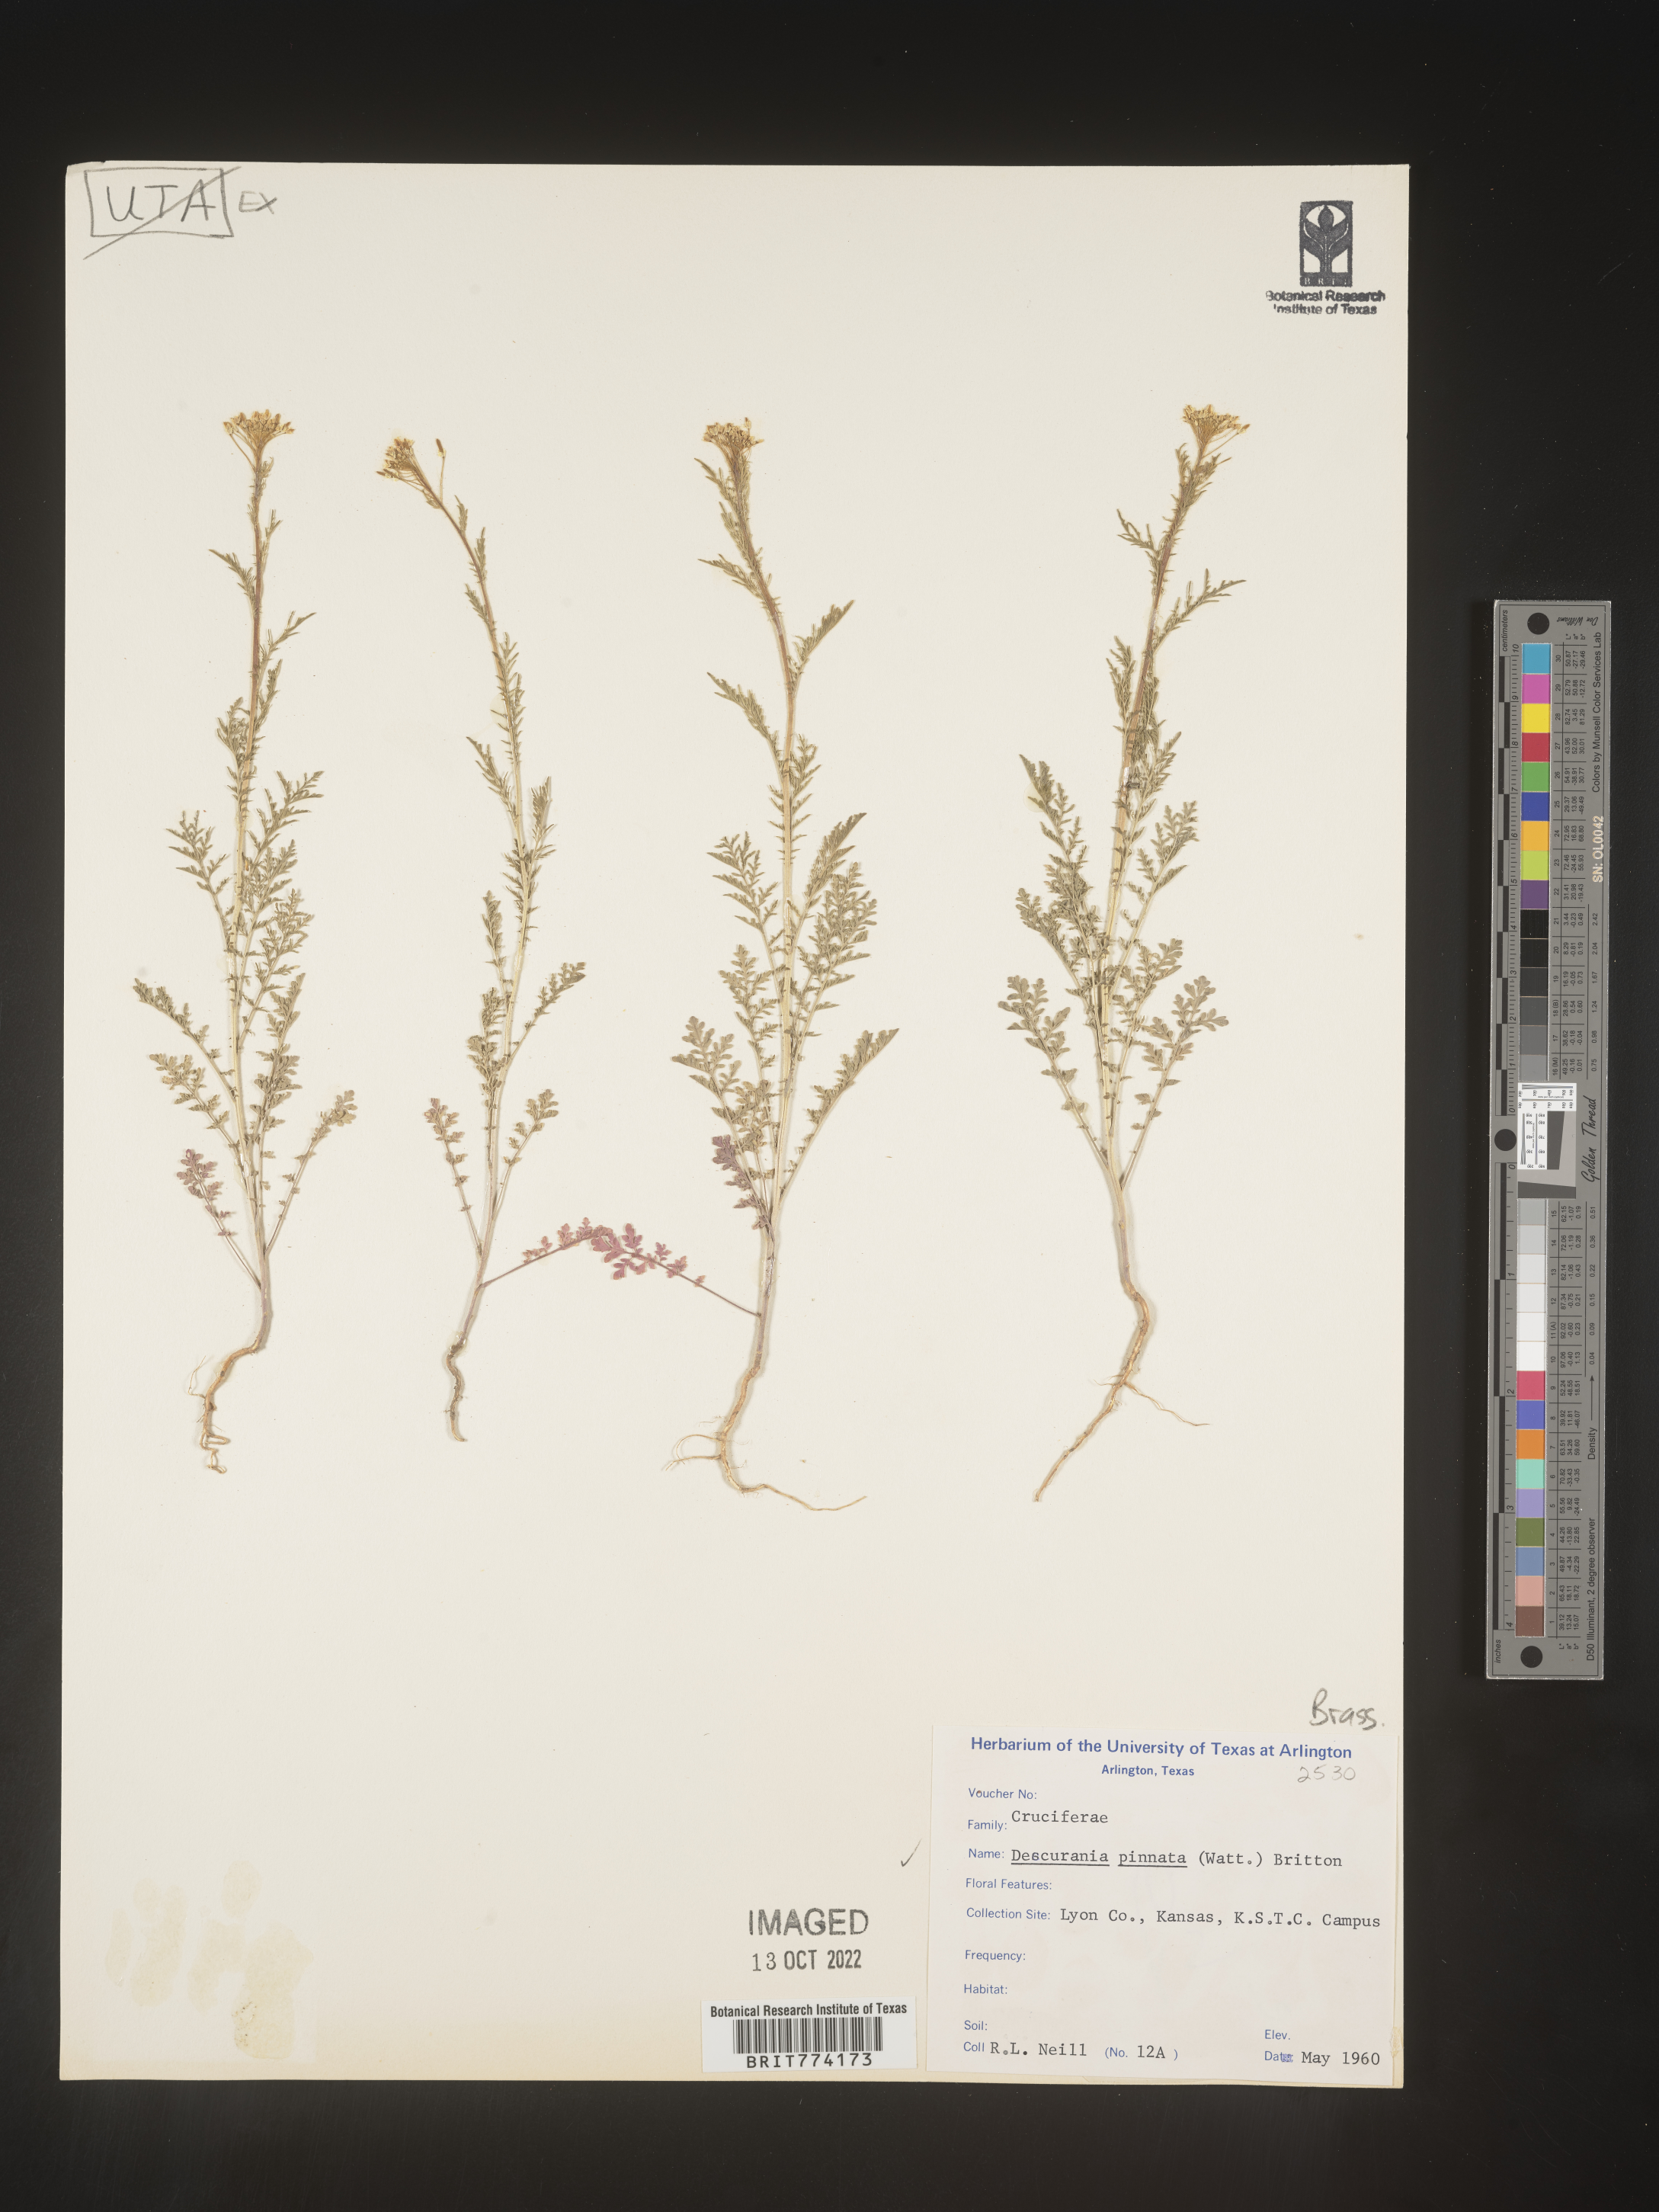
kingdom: Plantae
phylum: Tracheophyta
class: Magnoliopsida
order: Brassicales
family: Brassicaceae
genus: Descurainia
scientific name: Descurainia pinnata
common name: Western tansy mustard
